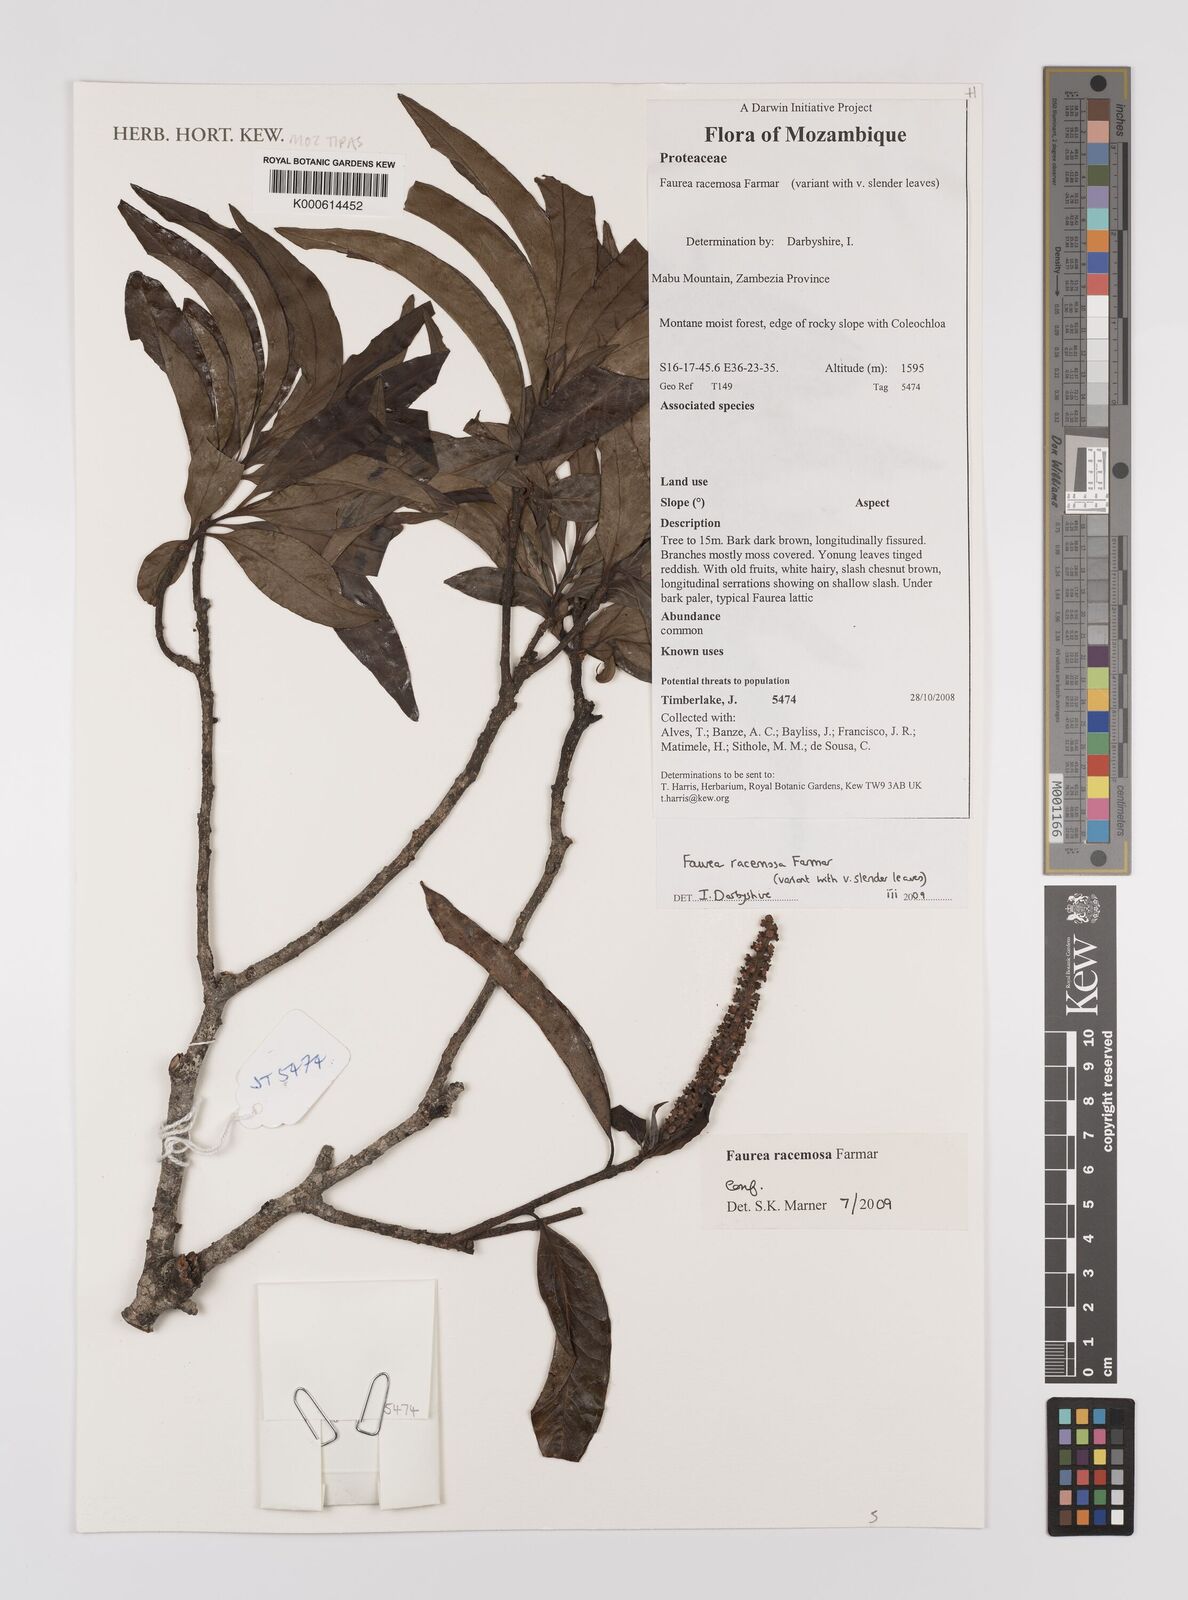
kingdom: Plantae
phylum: Tracheophyta
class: Magnoliopsida
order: Proteales
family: Proteaceae
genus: Faurea
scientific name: Faurea racemosa
